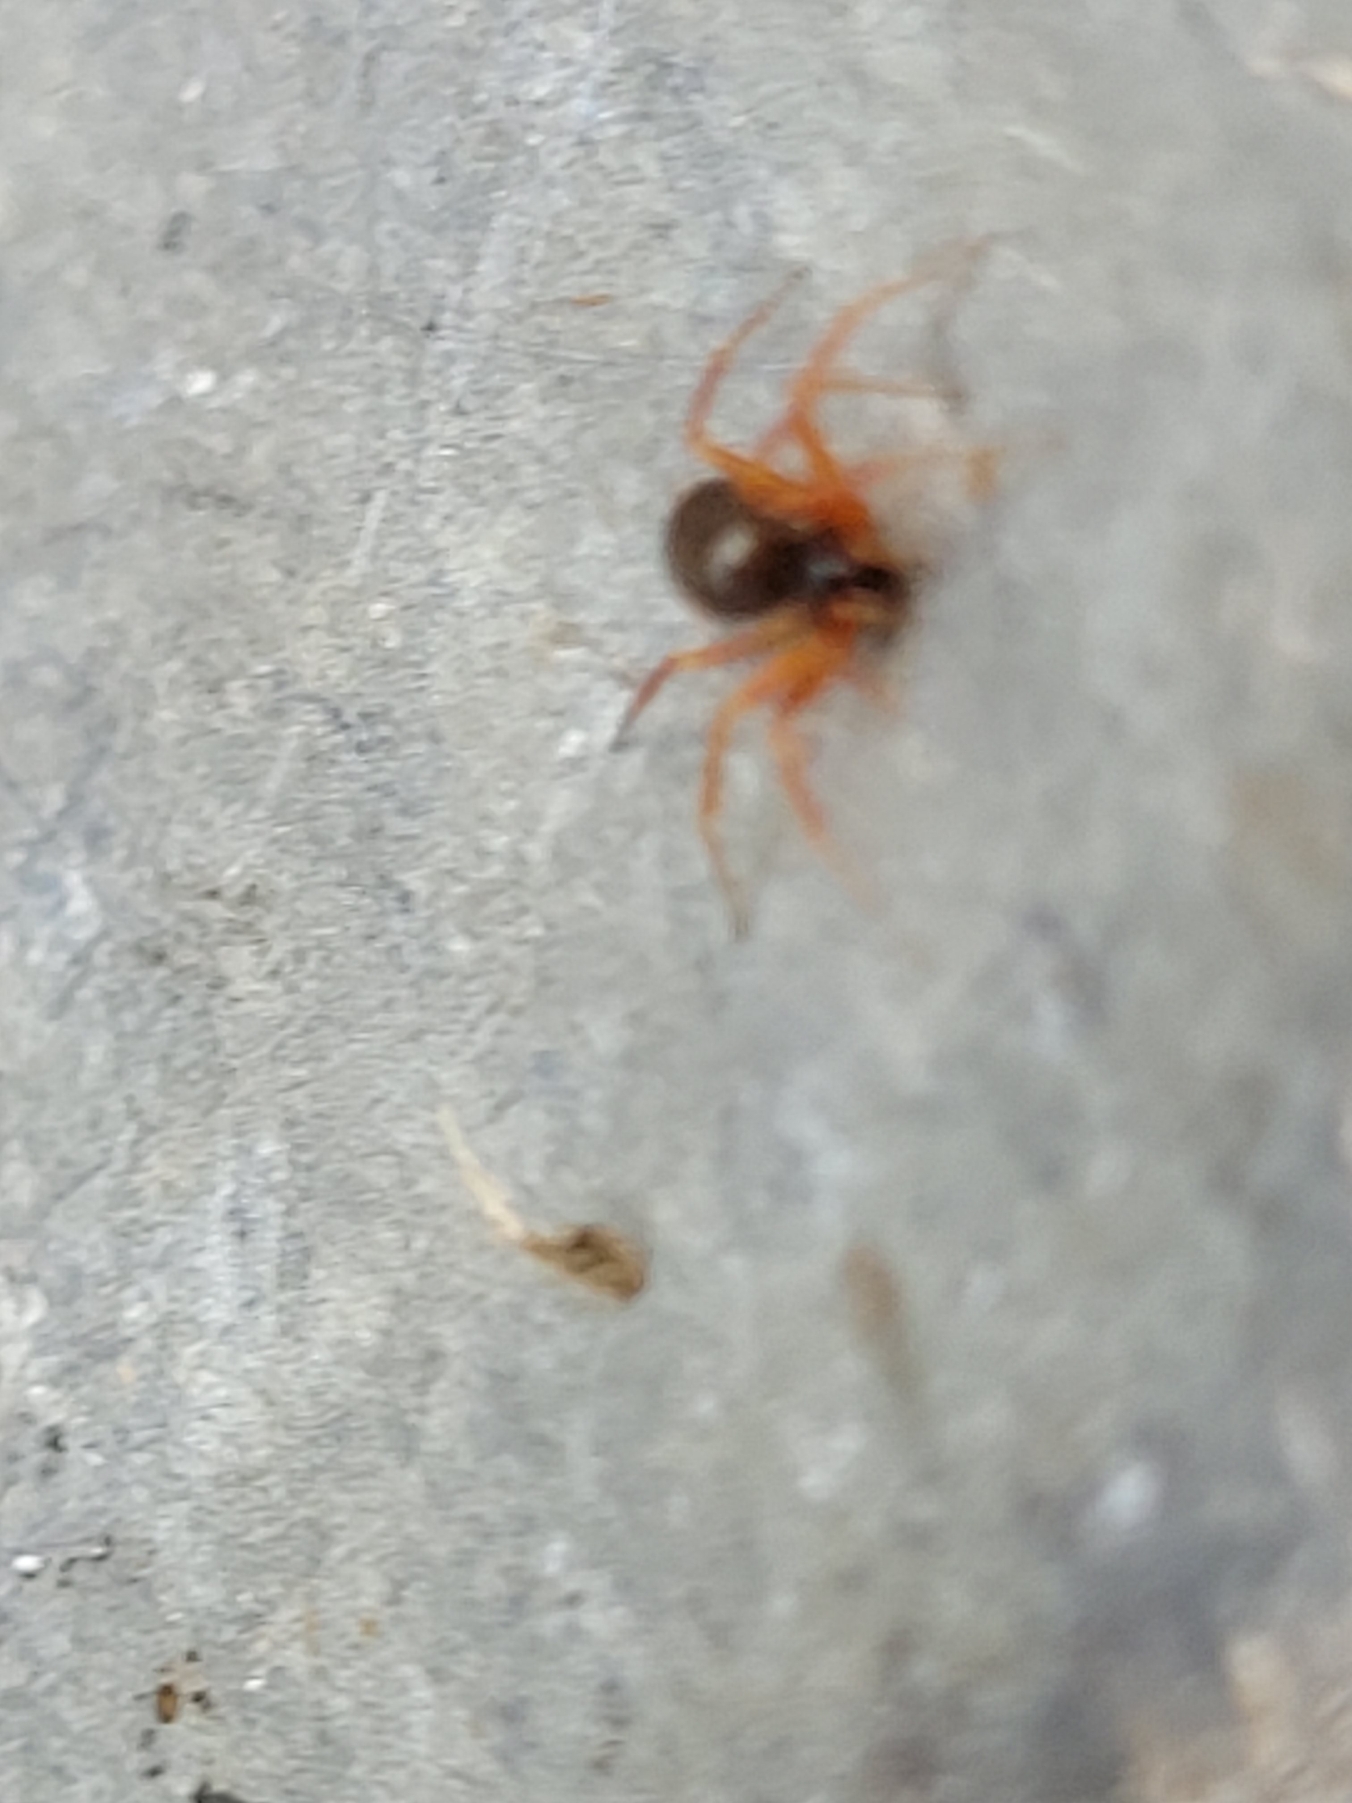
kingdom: Animalia
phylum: Arthropoda
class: Arachnida
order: Araneae
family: Linyphiidae
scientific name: Linyphiidae
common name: Tæppespindere
